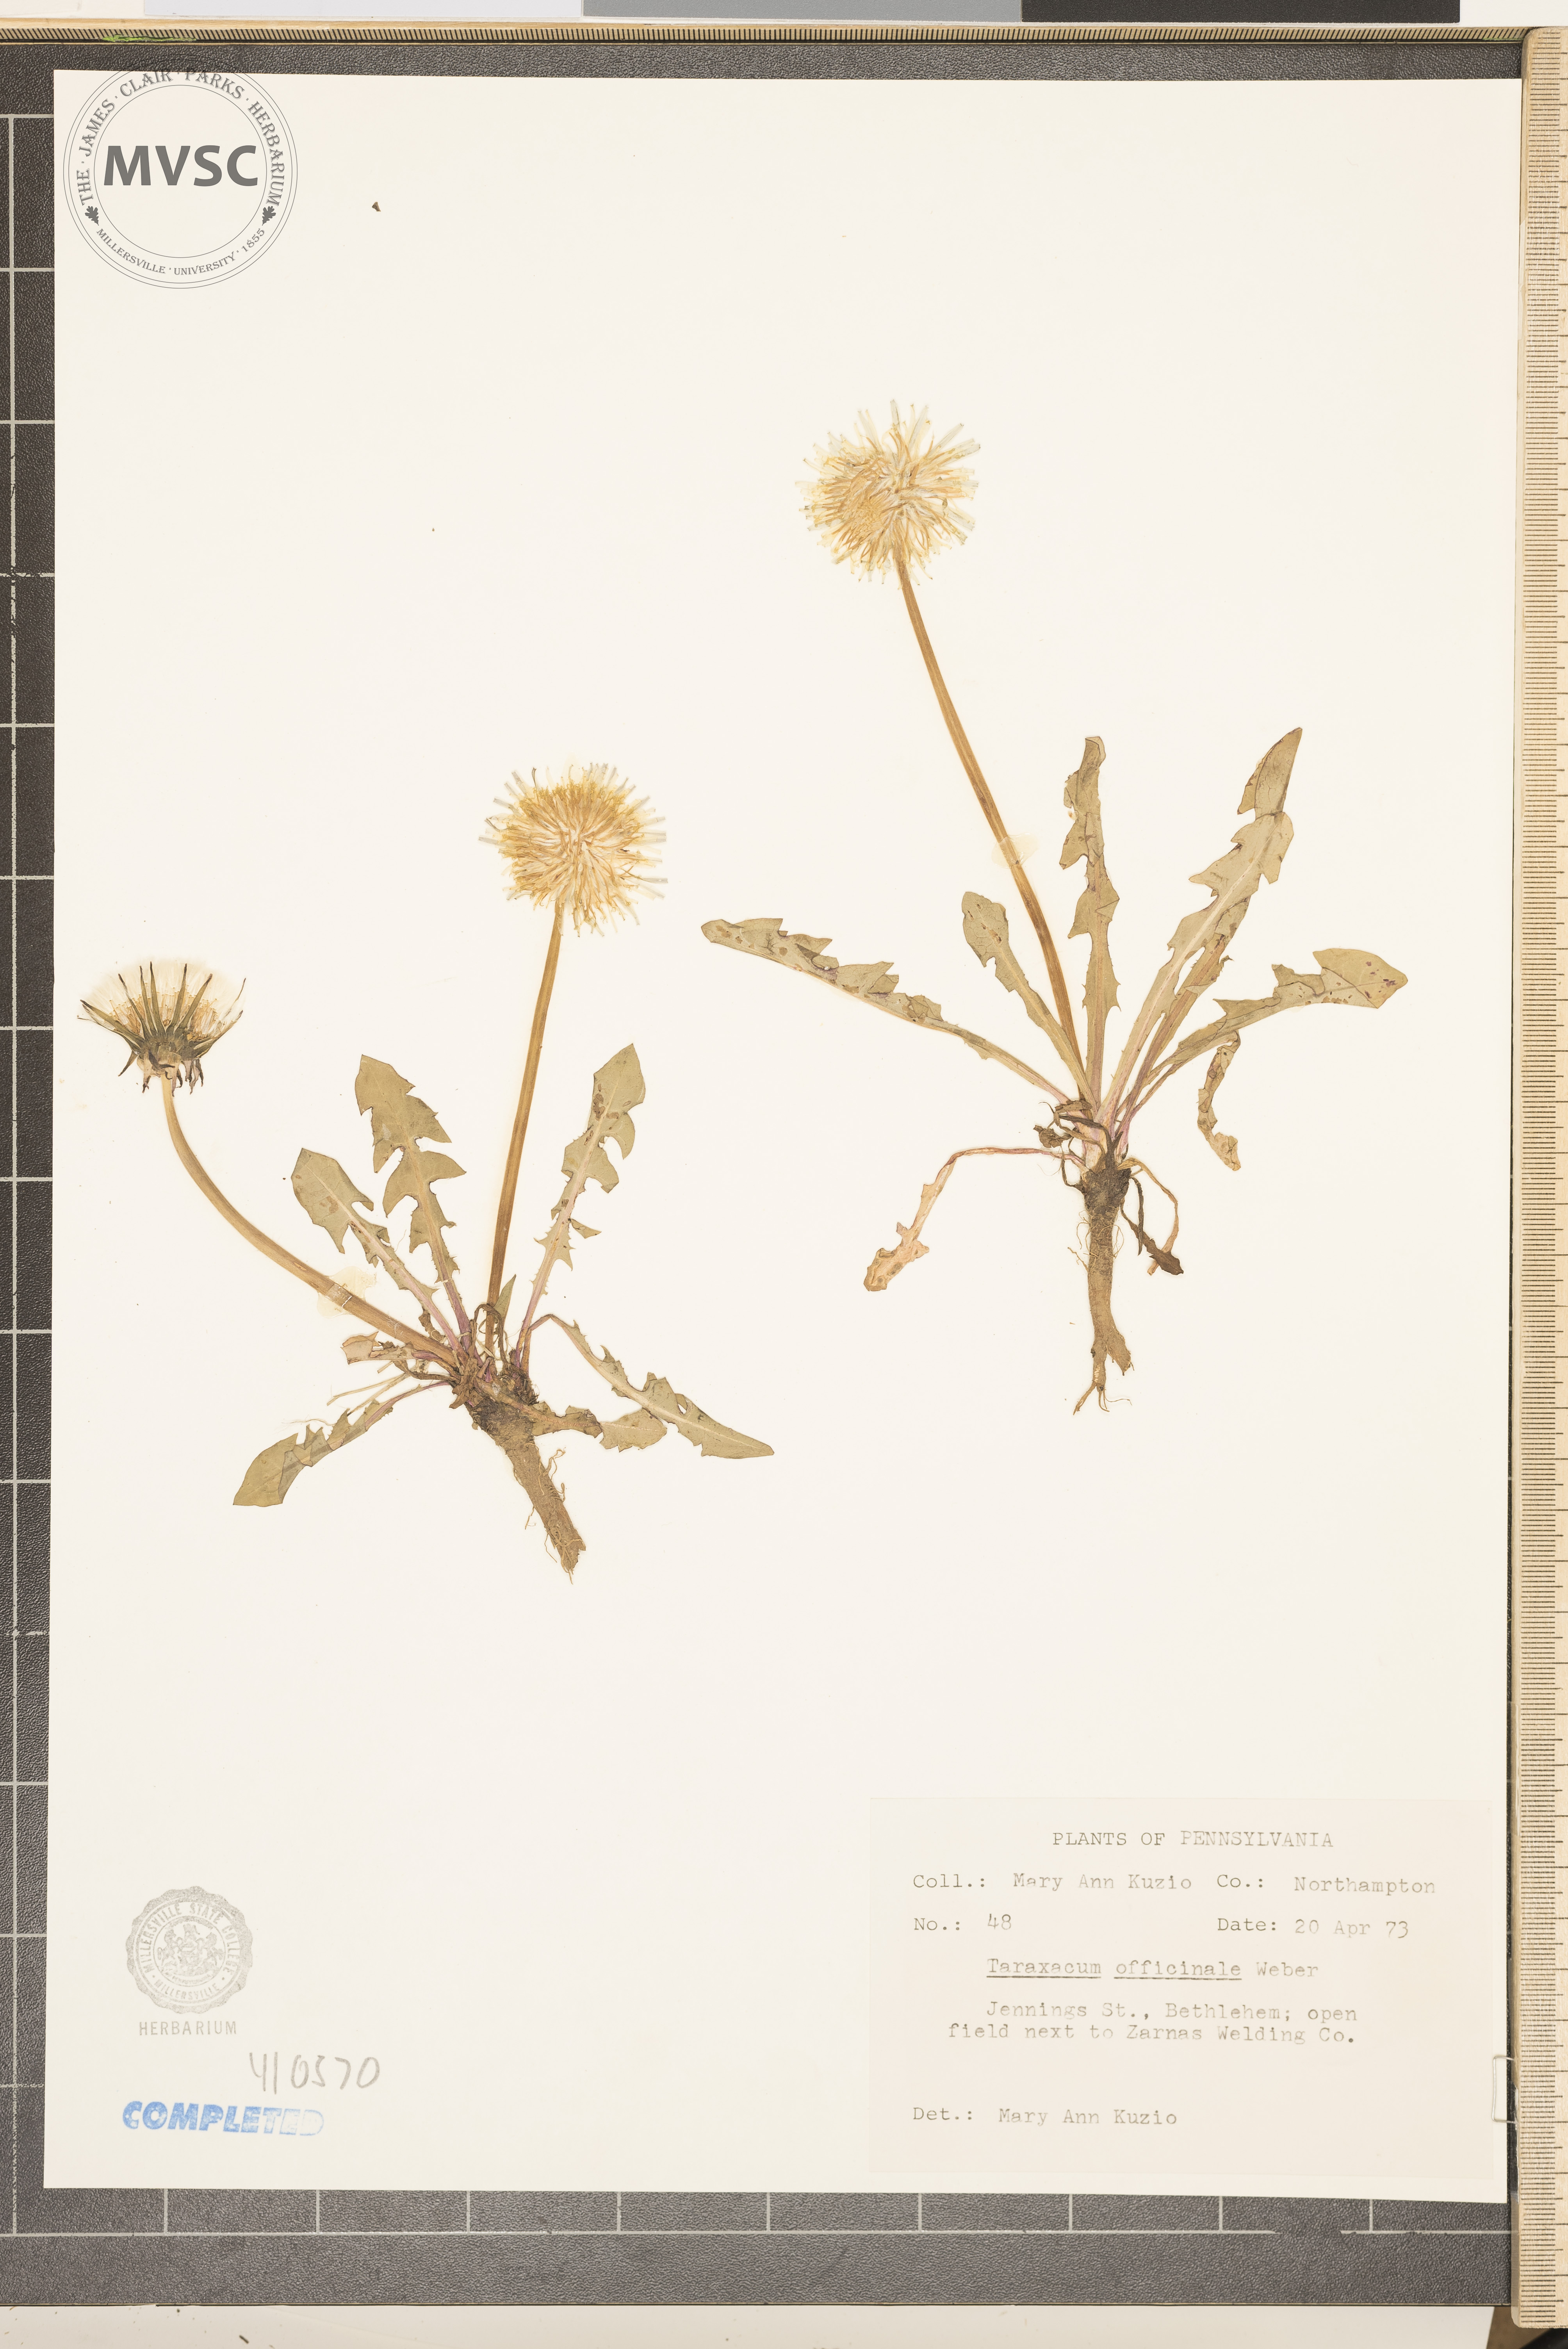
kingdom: Plantae
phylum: Tracheophyta
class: Magnoliopsida
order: Asterales
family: Asteraceae
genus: Taraxacum
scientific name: Taraxacum officinale
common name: Common dandelion
